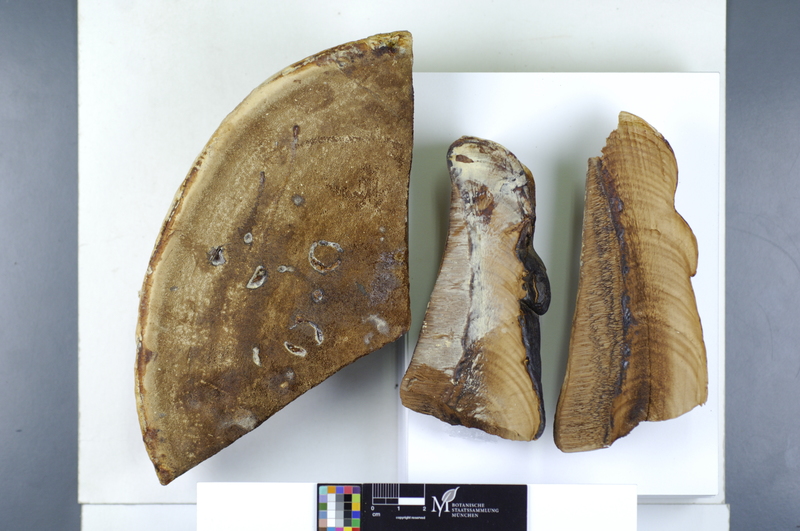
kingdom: Fungi
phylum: Basidiomycota
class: Agaricomycetes
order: Polyporales
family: Polyporaceae
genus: Ganoderma
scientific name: Ganoderma resinaceum
